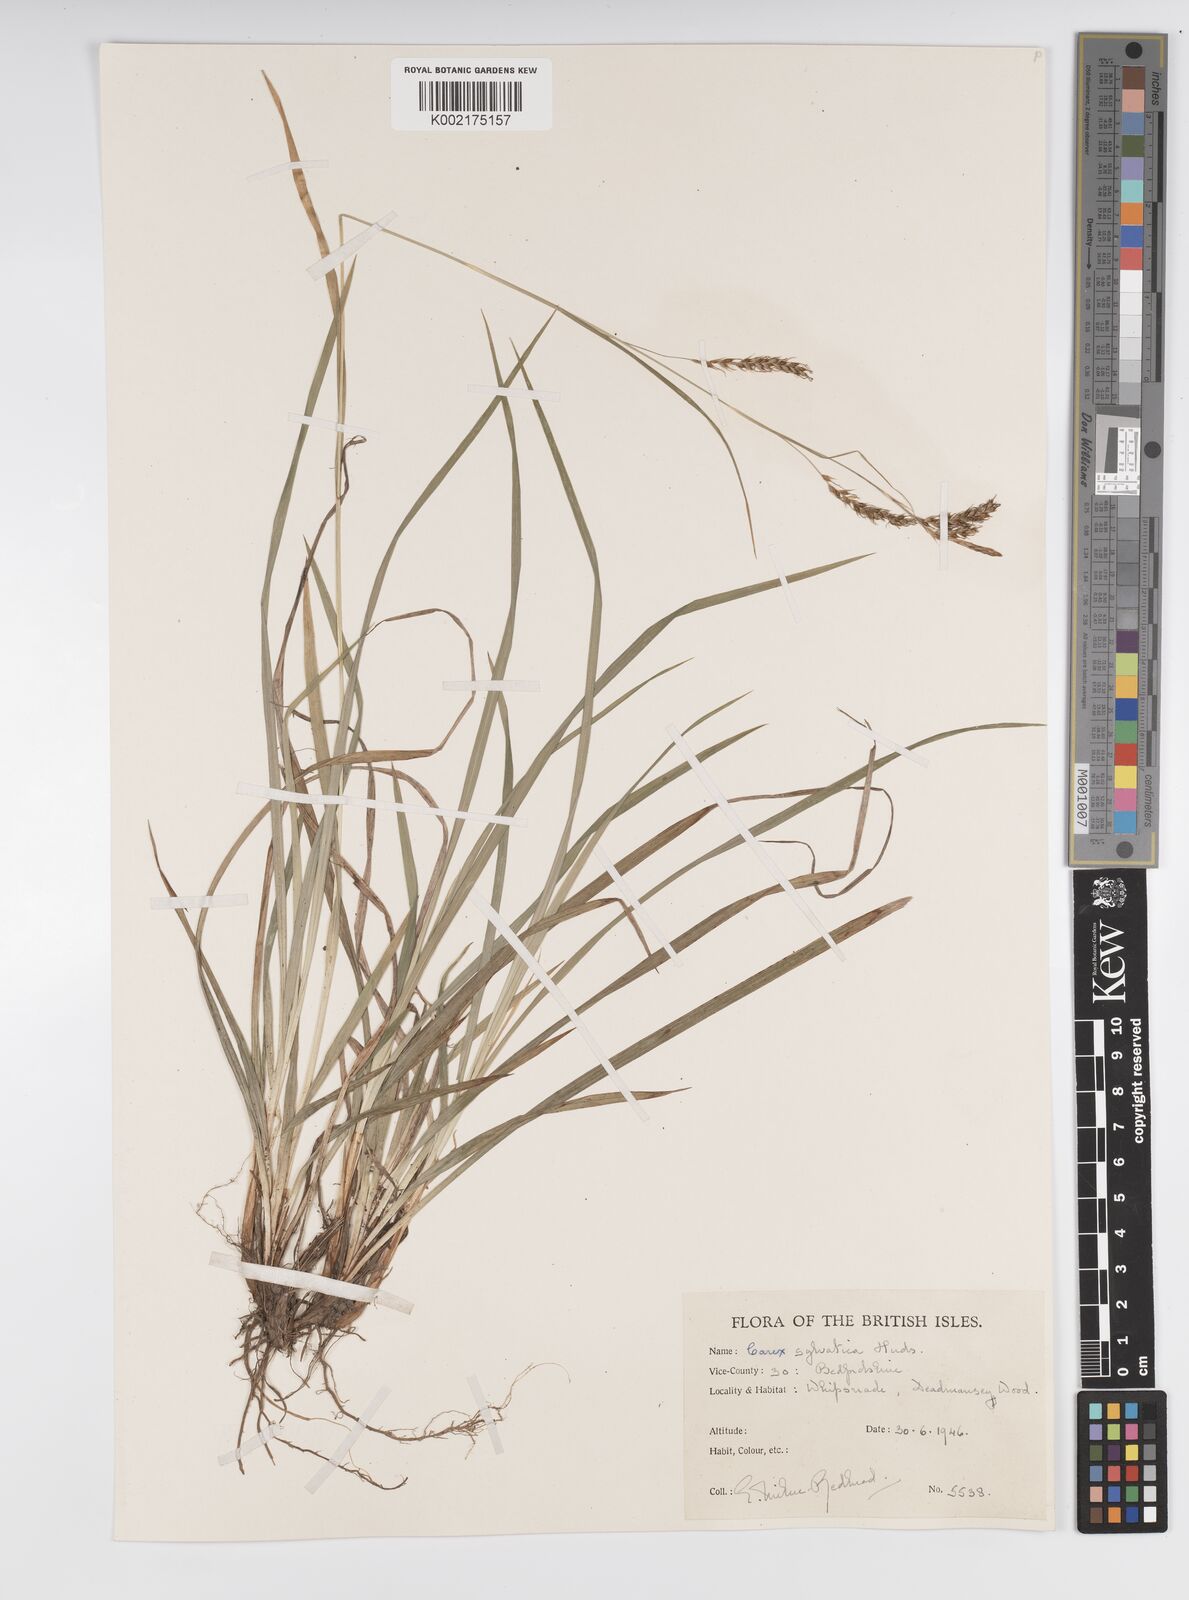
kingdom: Plantae
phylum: Tracheophyta
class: Liliopsida
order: Poales
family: Cyperaceae
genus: Carex
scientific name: Carex sylvatica
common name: Wood-sedge
